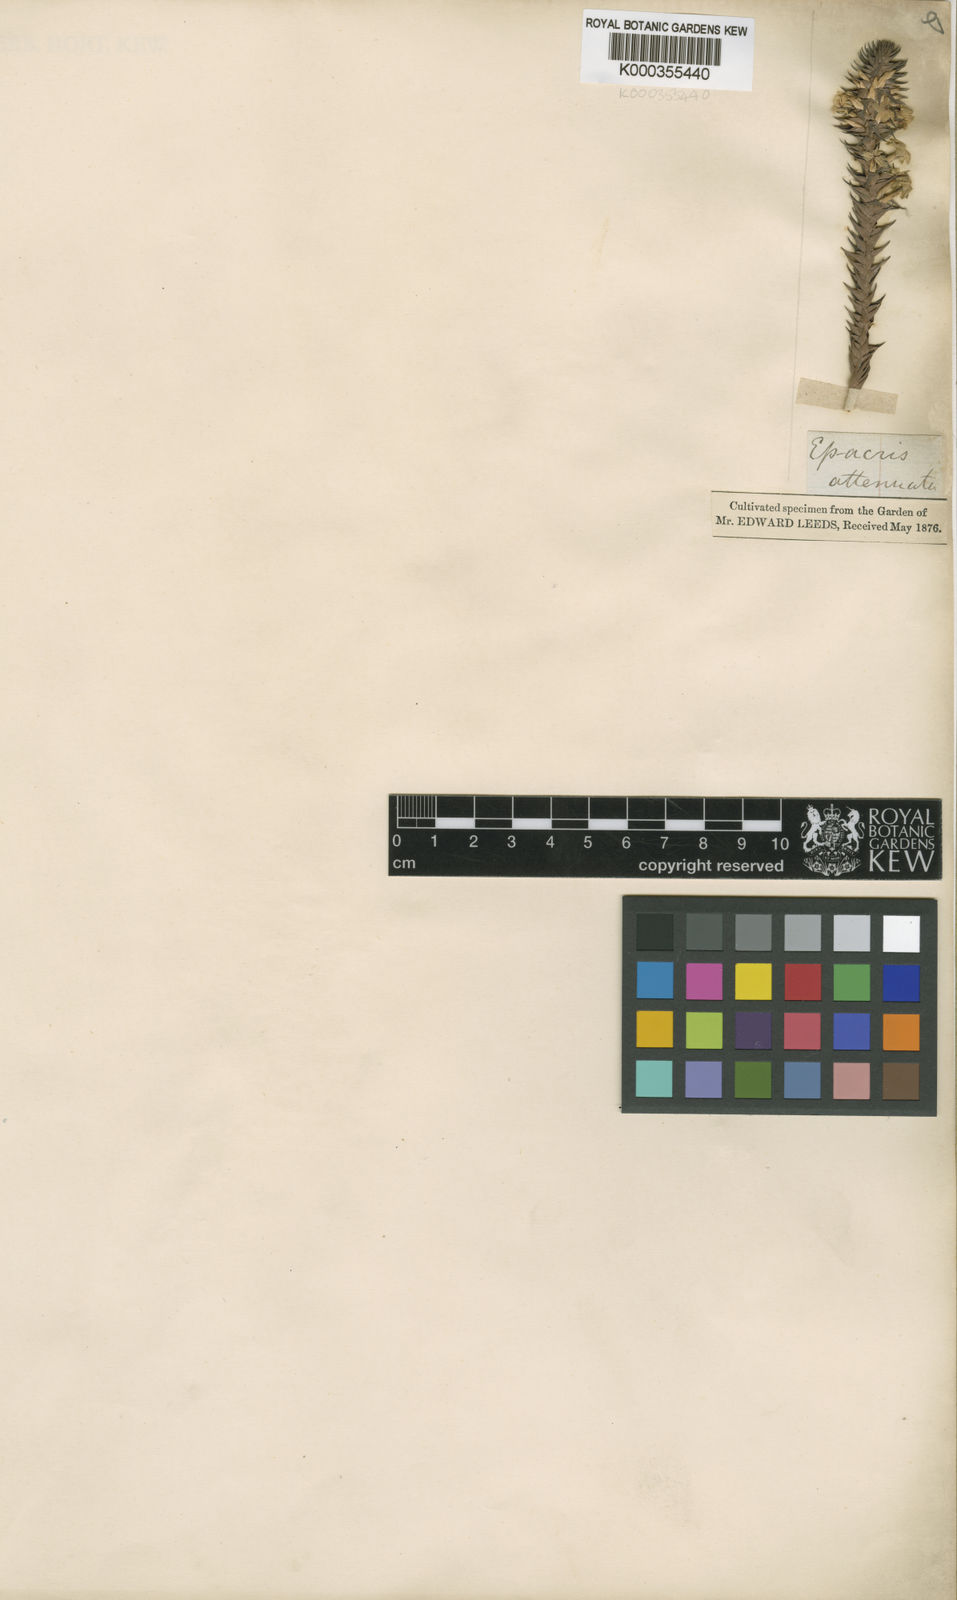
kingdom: Plantae
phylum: Tracheophyta
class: Magnoliopsida
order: Ericales
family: Ericaceae
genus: Epacris
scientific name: Epacris
